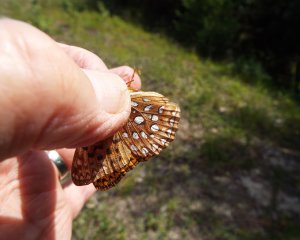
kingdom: Animalia
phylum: Arthropoda
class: Insecta
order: Lepidoptera
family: Nymphalidae
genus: Speyeria
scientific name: Speyeria aphrodite
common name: Aphrodite Fritillary
